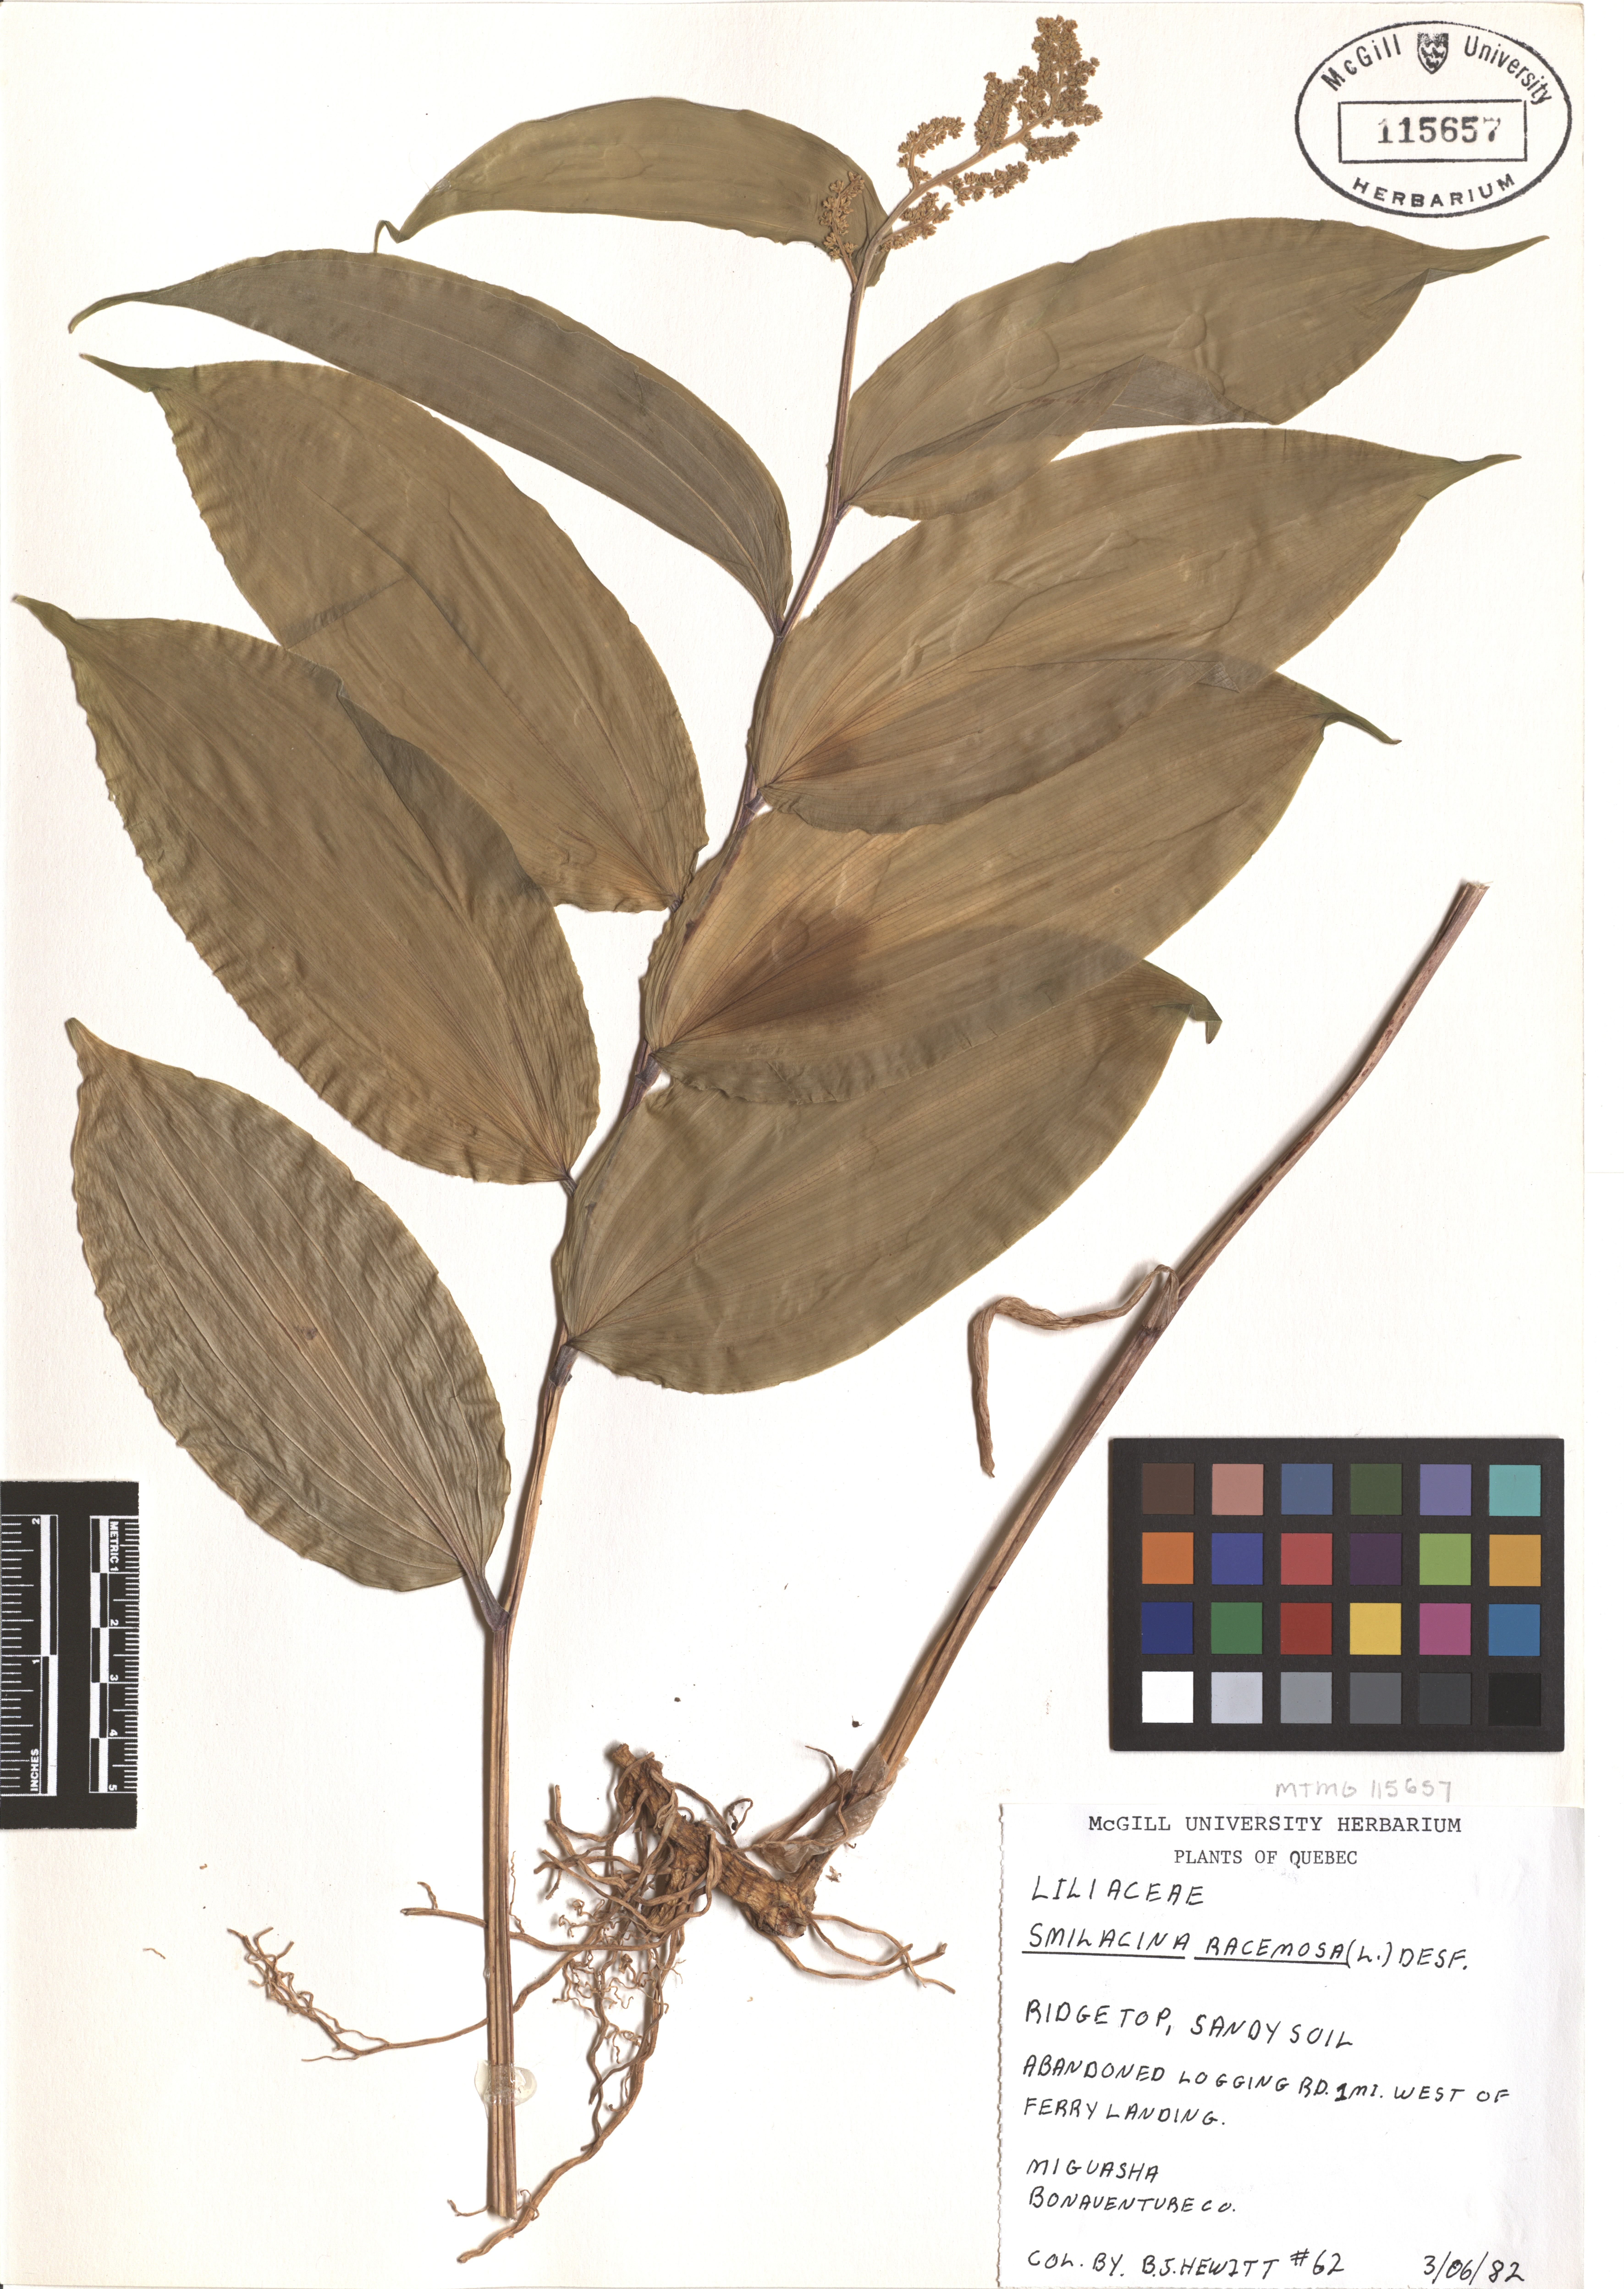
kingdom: Plantae
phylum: Tracheophyta
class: Liliopsida
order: Asparagales
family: Asparagaceae
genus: Maianthemum
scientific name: Maianthemum racemosum
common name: False spikenard
